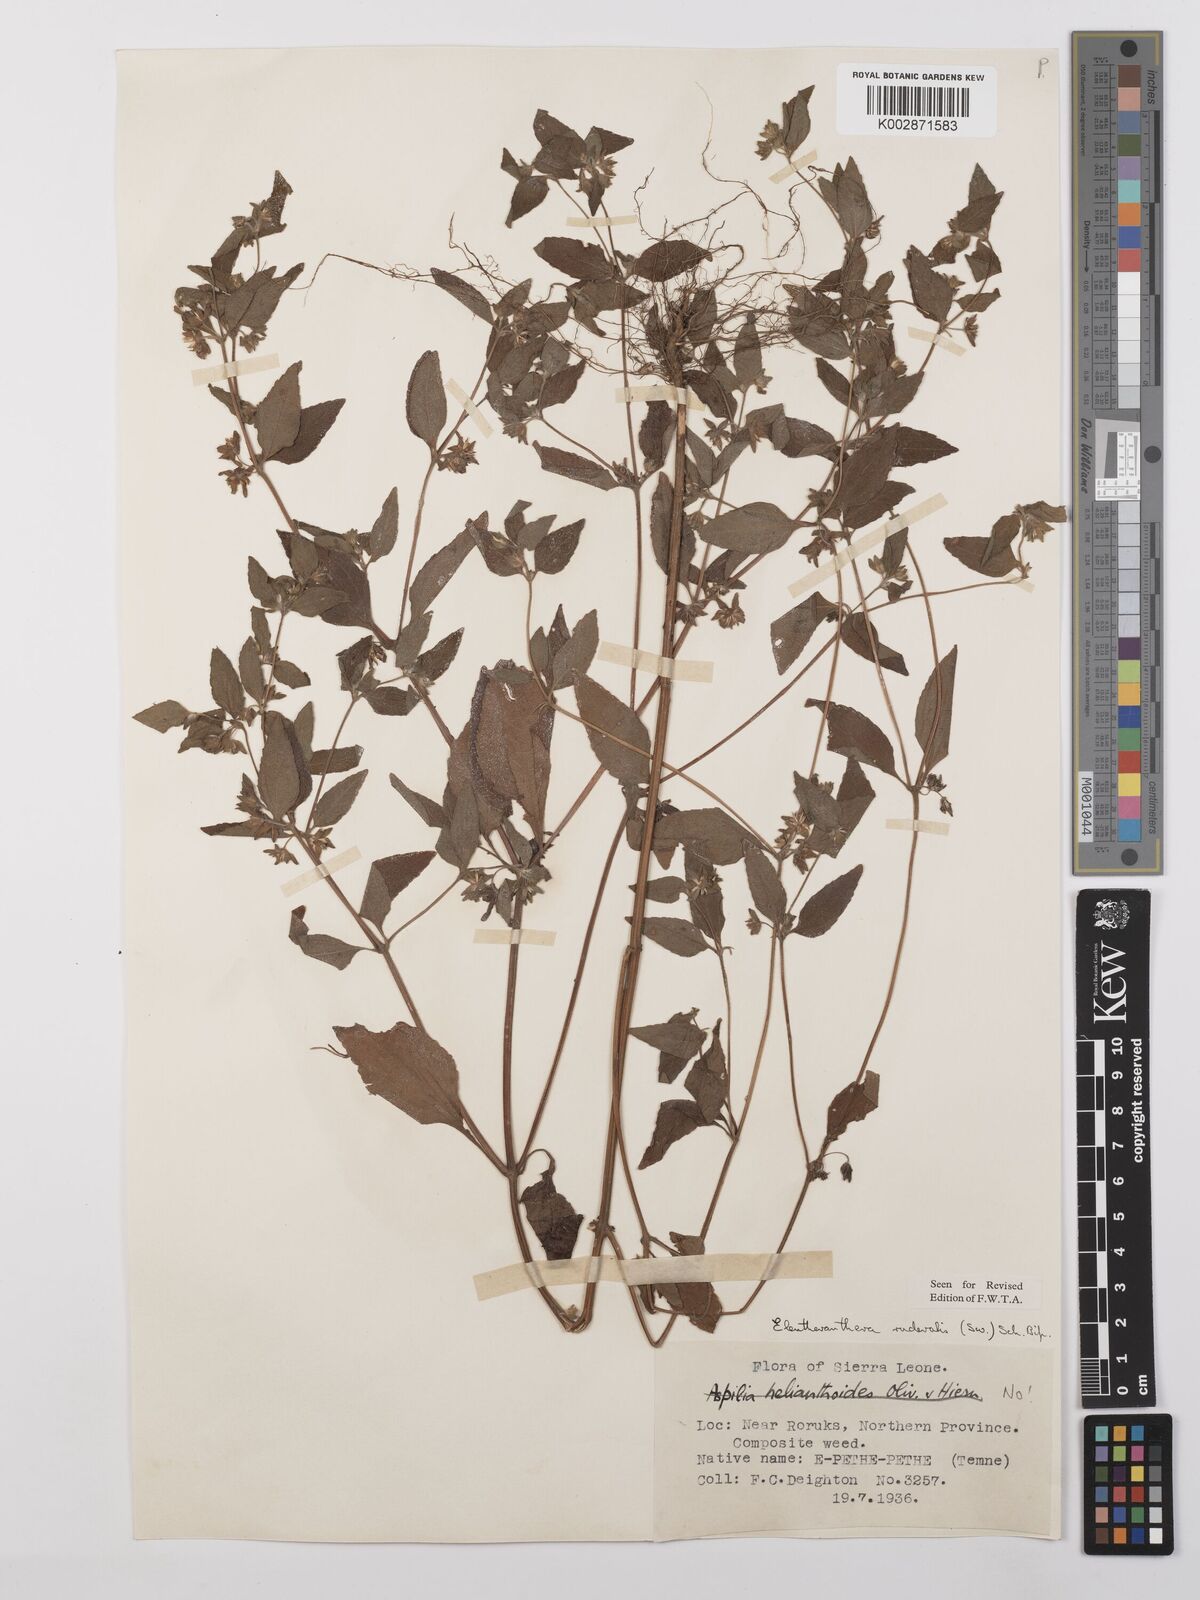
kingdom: Plantae
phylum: Tracheophyta
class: Magnoliopsida
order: Asterales
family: Asteraceae
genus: Eleutheranthera
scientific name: Eleutheranthera ruderalis
